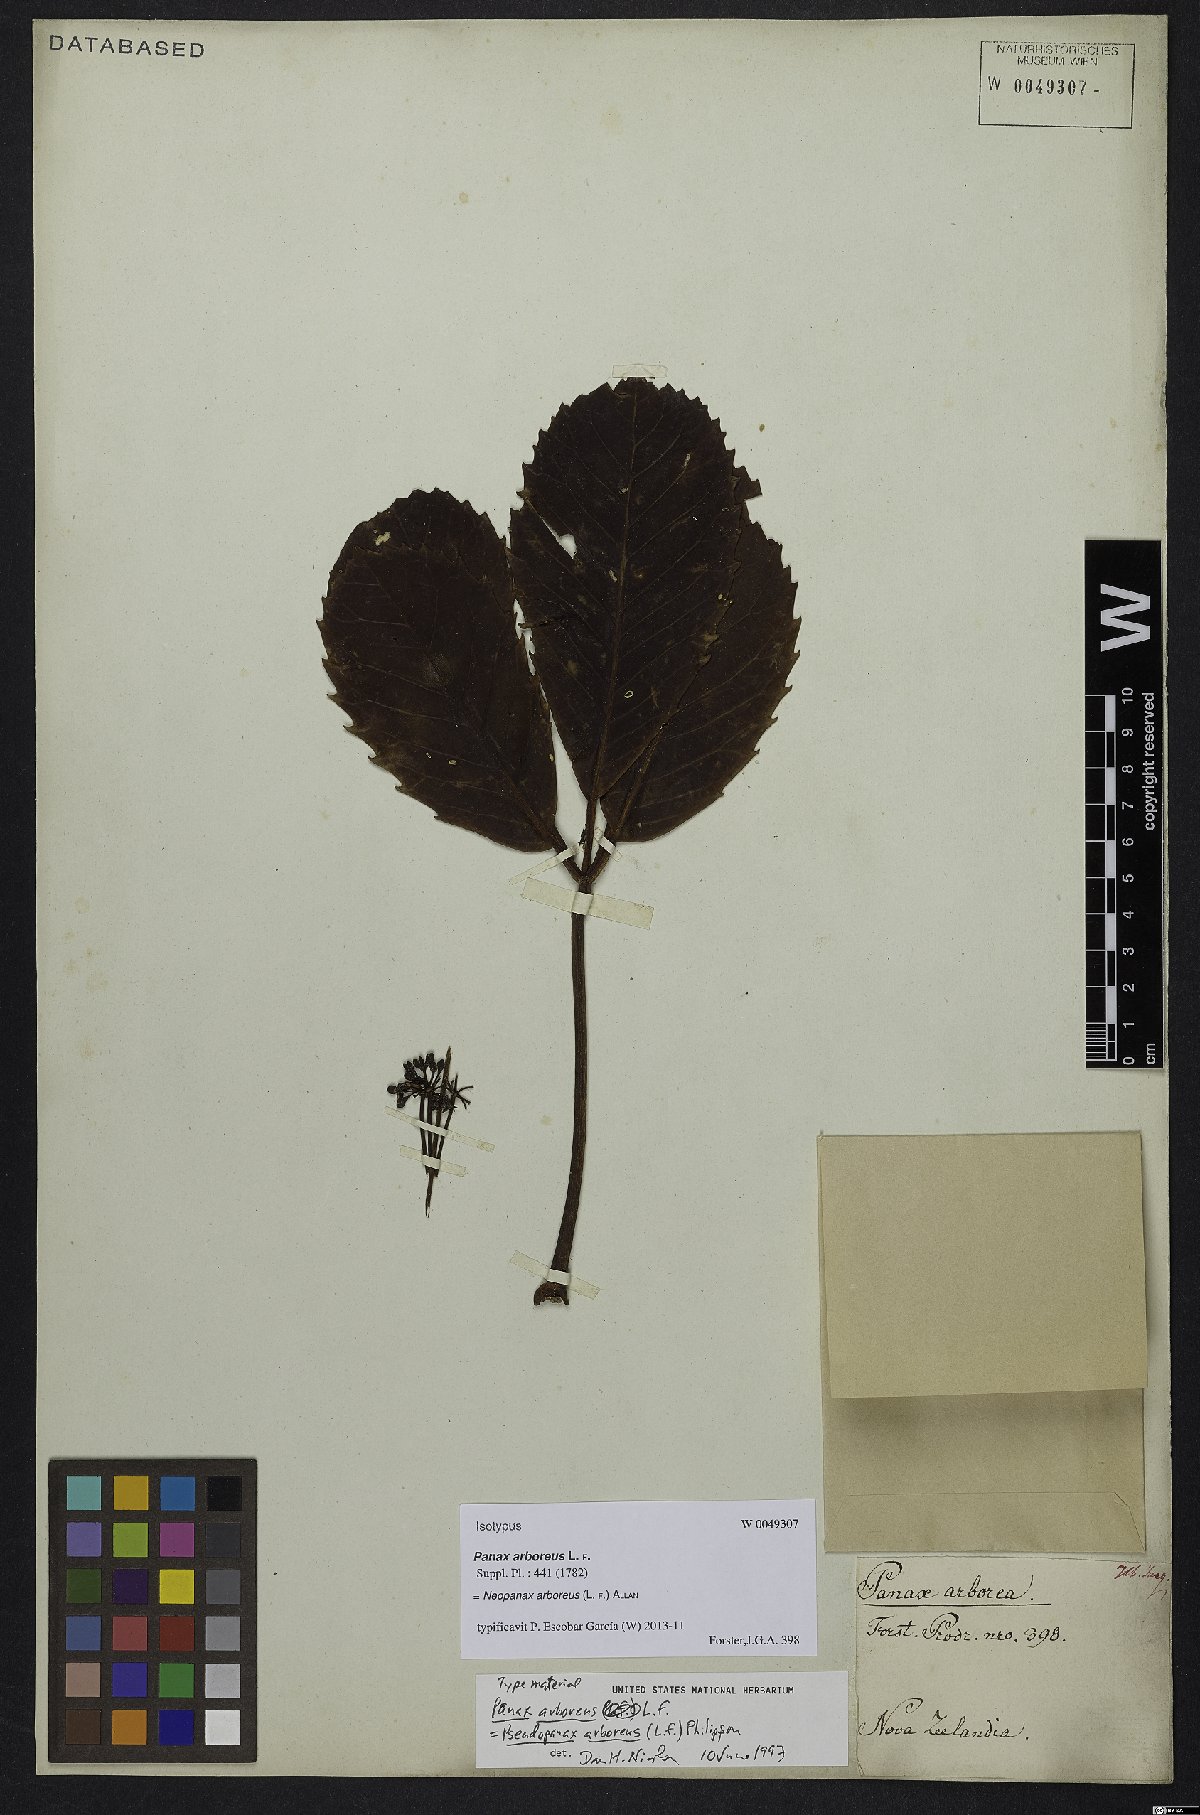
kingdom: Plantae
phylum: Tracheophyta
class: Magnoliopsida
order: Apiales
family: Araliaceae
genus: Neopanax
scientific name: Neopanax arboreus
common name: Five-fingers
